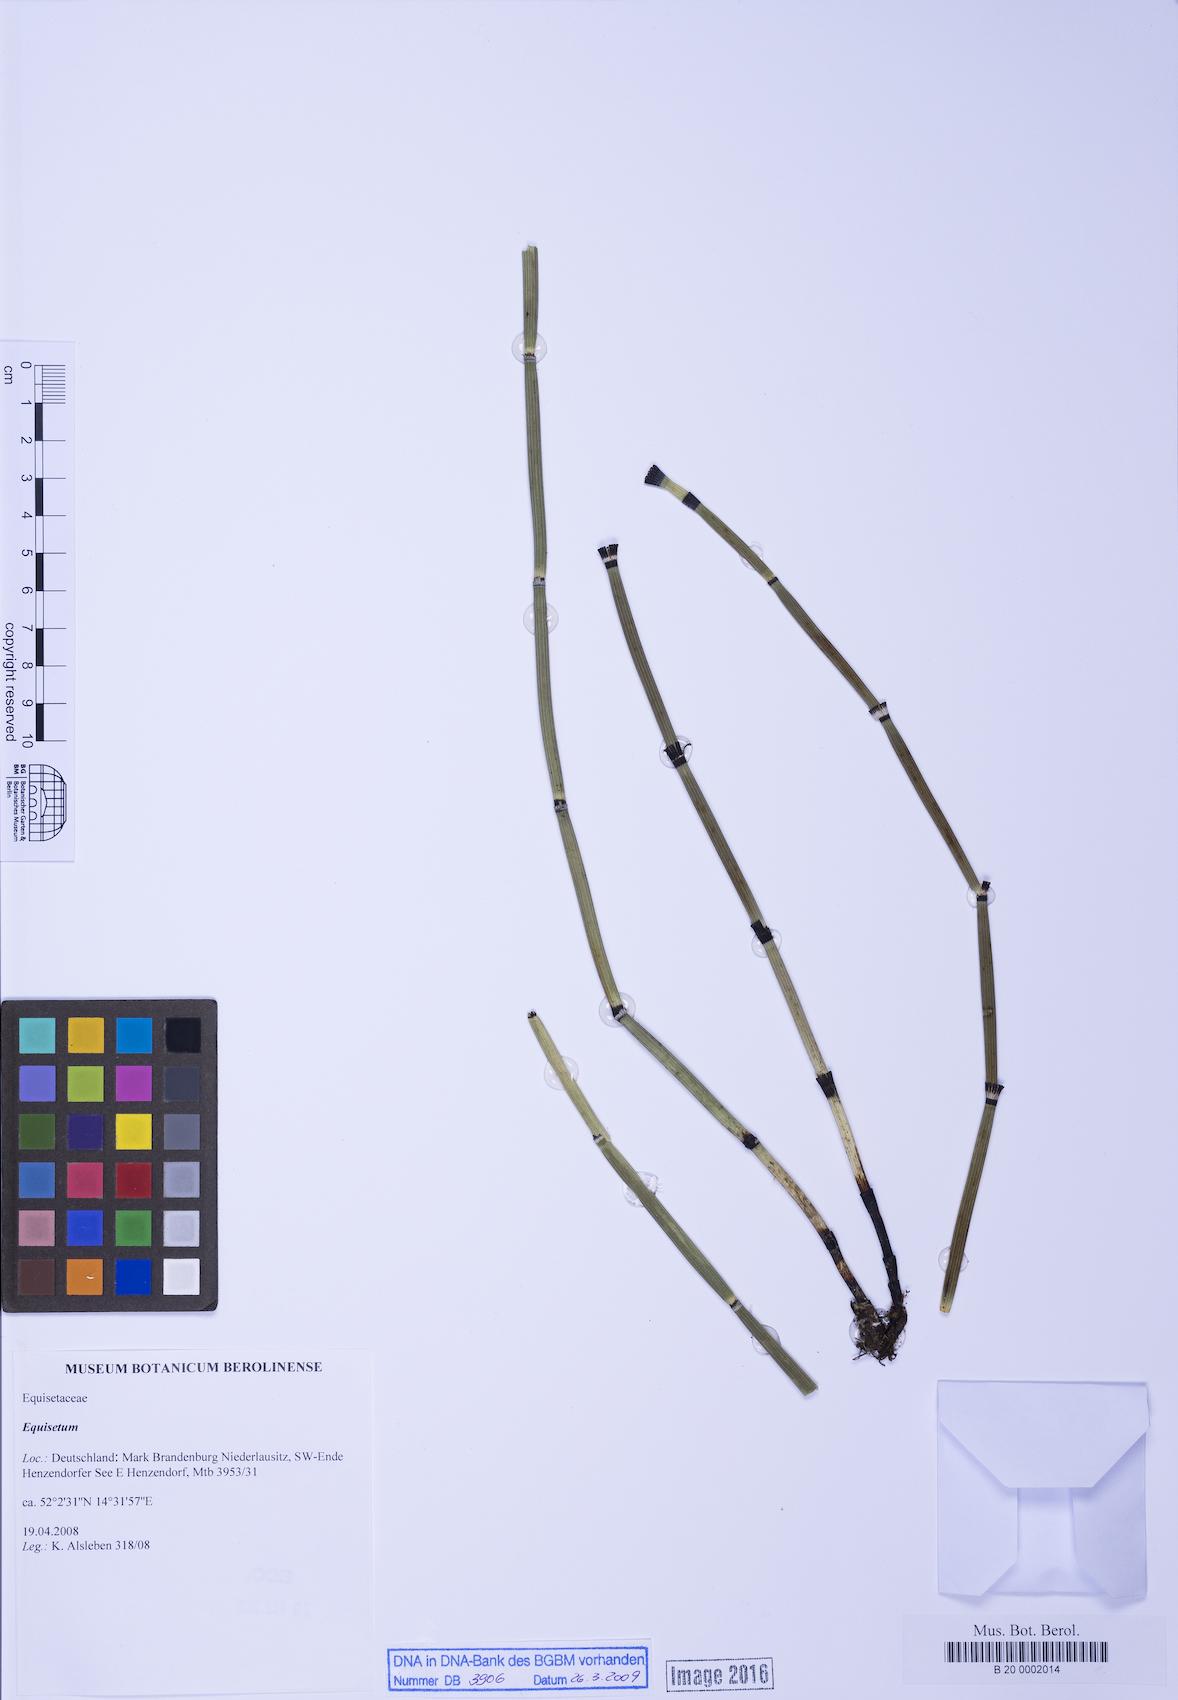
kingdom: Plantae
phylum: Tracheophyta
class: Polypodiopsida
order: Equisetales
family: Equisetaceae
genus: Equisetum
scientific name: Equisetum
